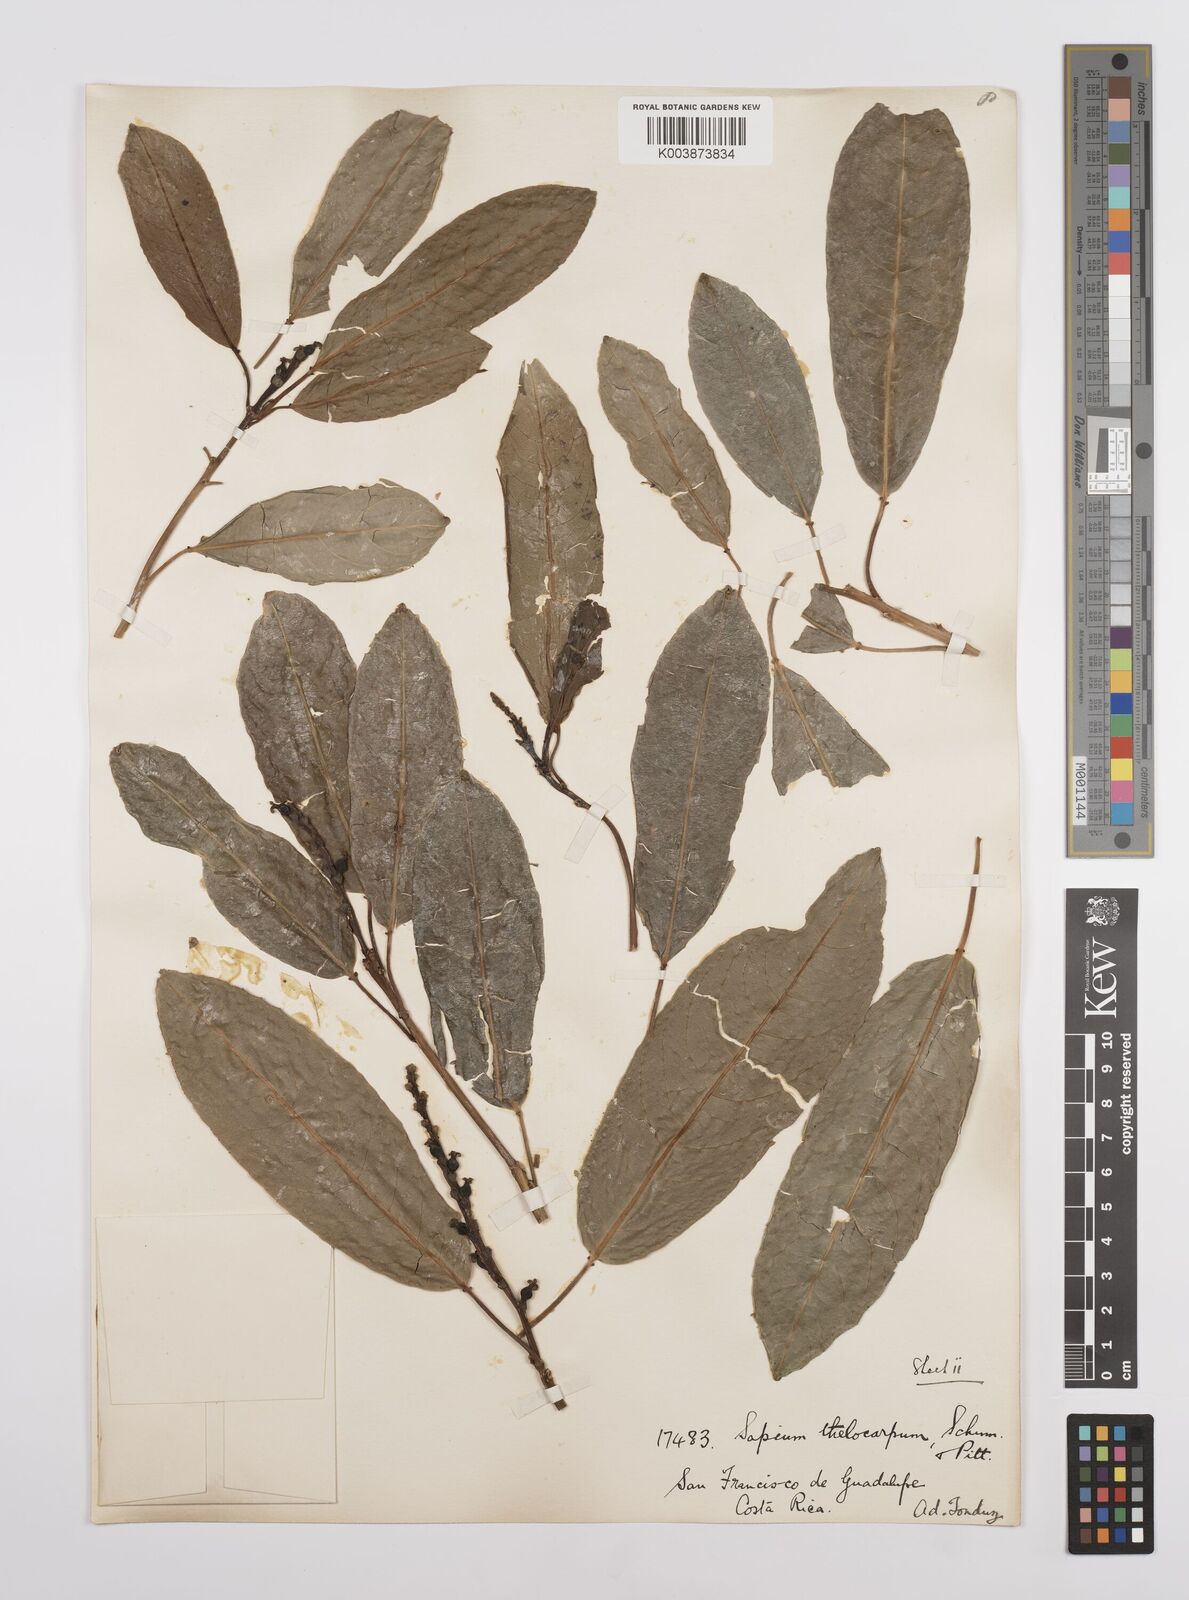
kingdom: Plantae
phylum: Tracheophyta
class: Magnoliopsida
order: Malpighiales
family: Euphorbiaceae
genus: Sapium
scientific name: Sapium macrocarpum
